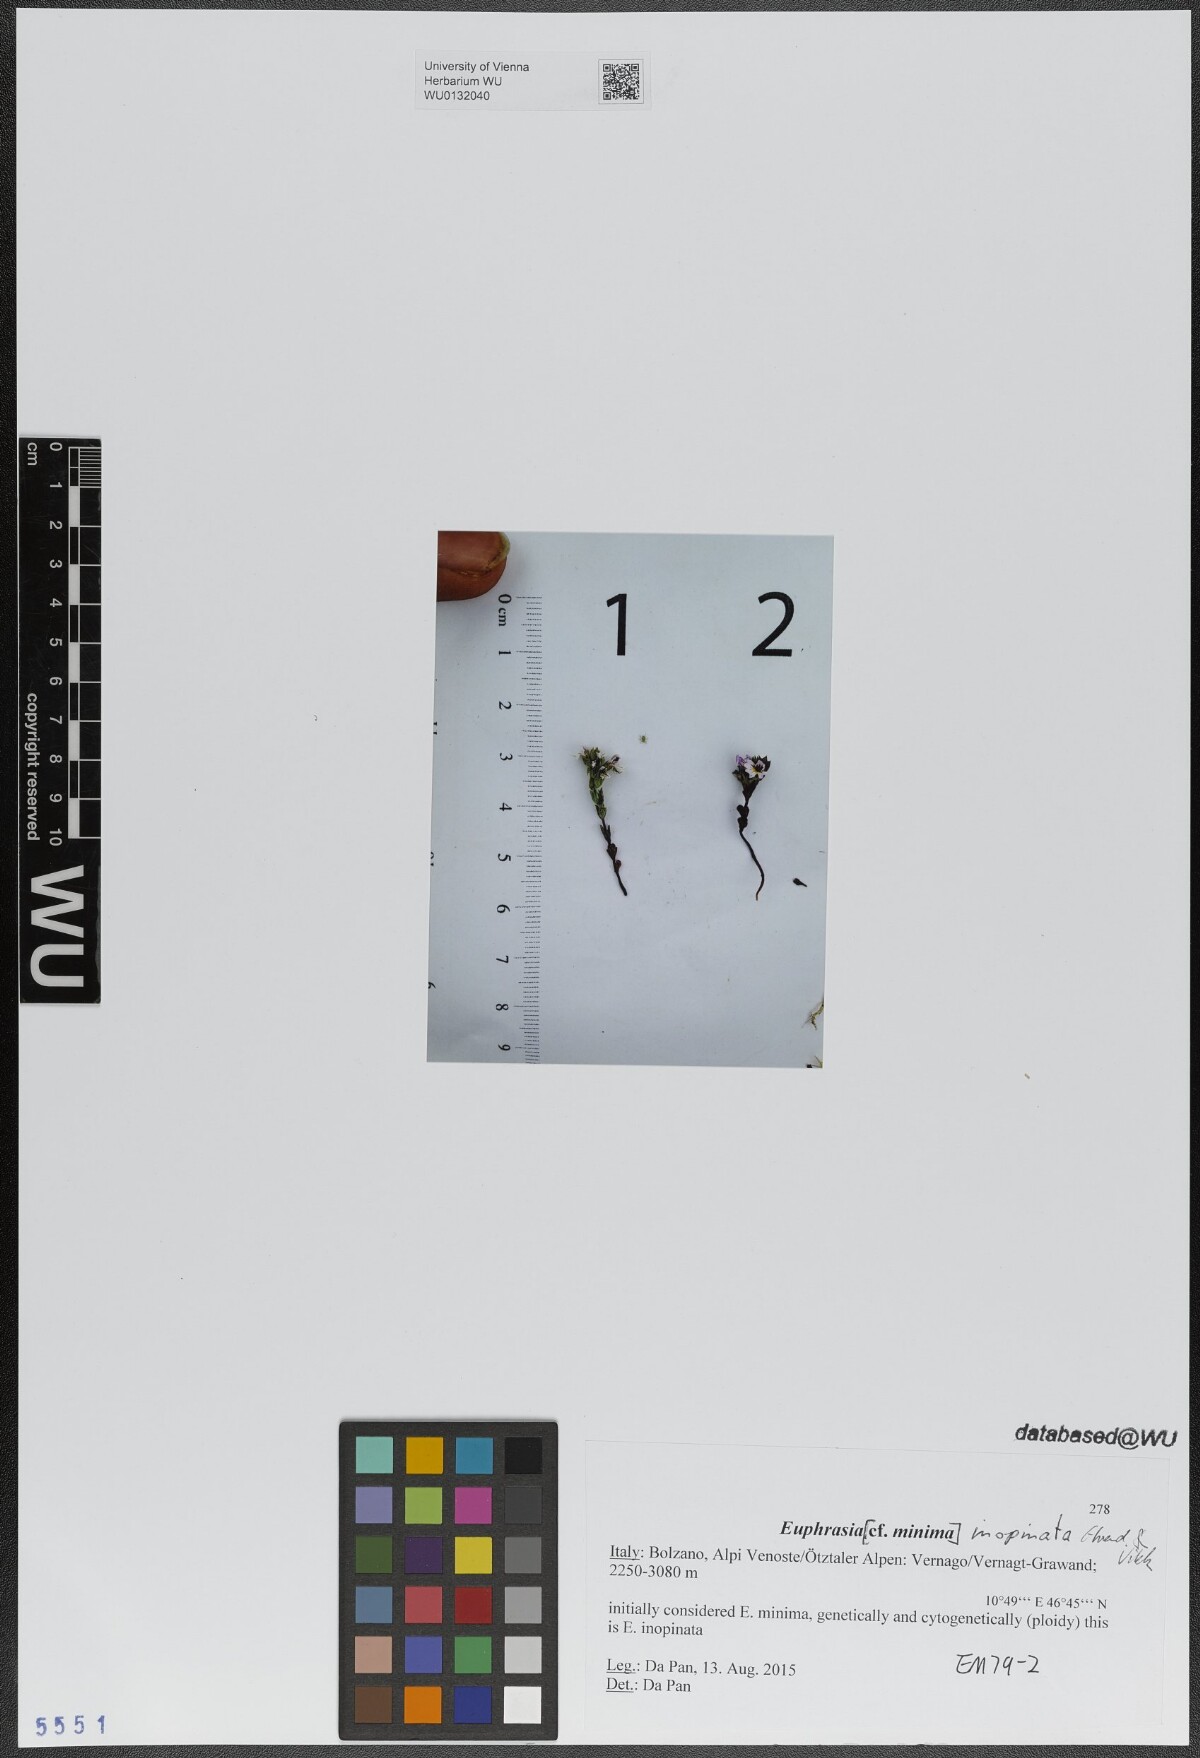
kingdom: Plantae
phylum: Tracheophyta
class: Magnoliopsida
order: Lamiales
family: Orobanchaceae
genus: Euphrasia
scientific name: Euphrasia inopinata
